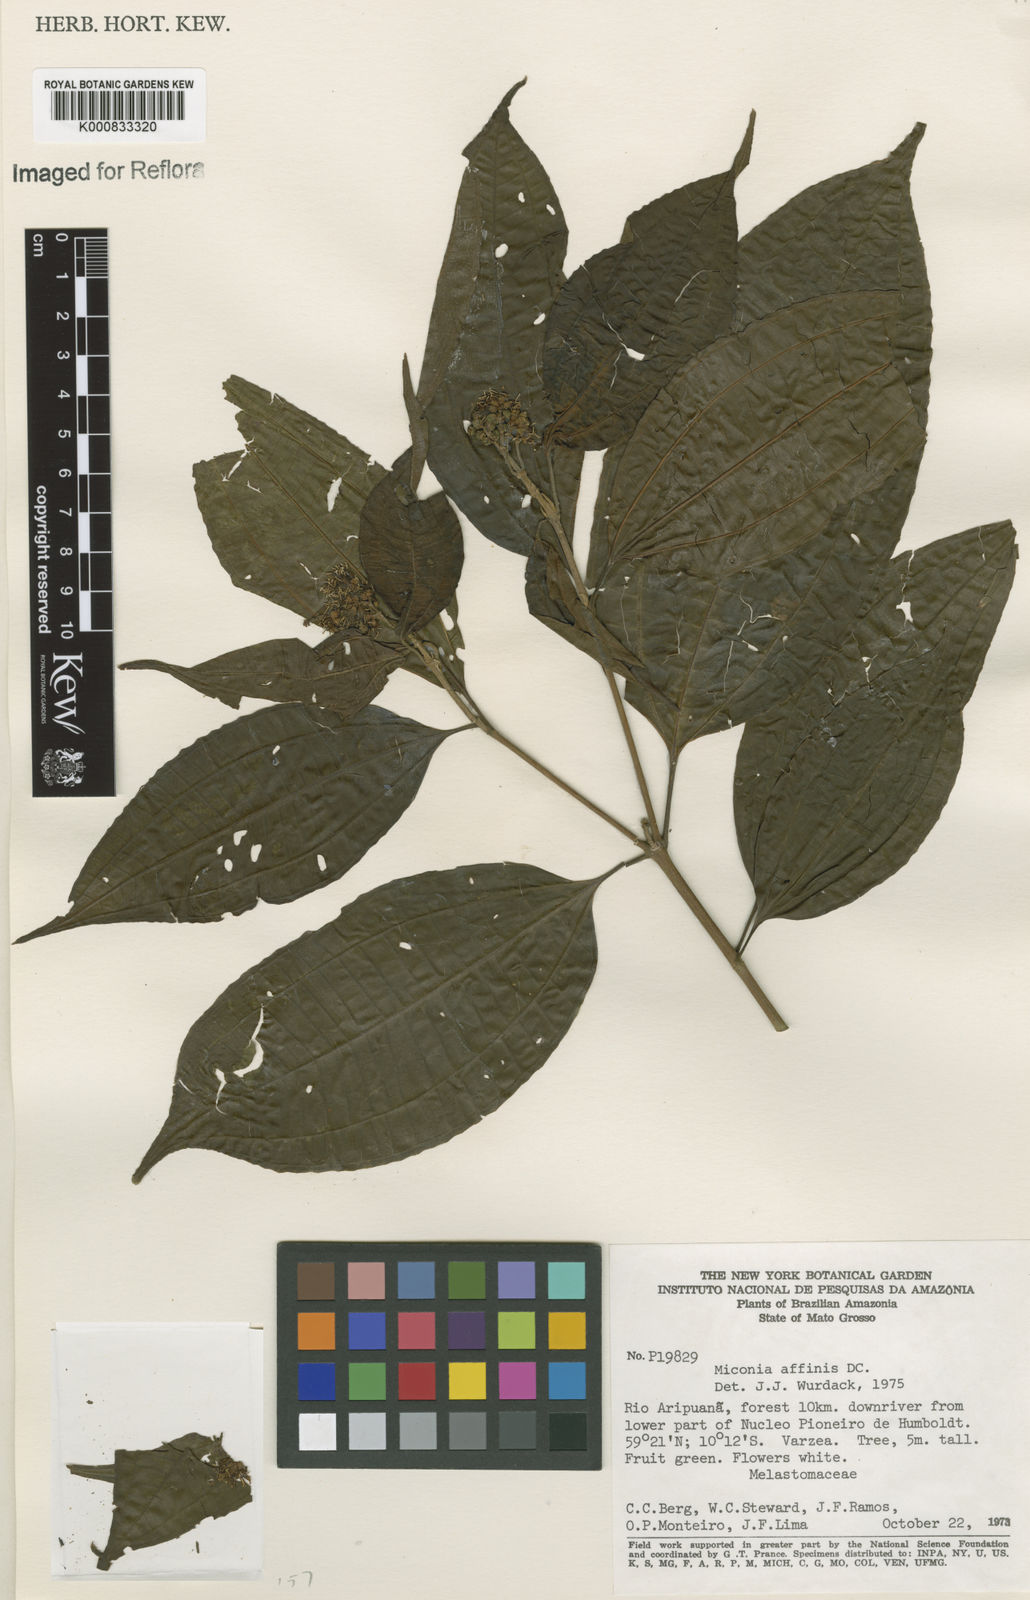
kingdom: Plantae
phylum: Tracheophyta
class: Magnoliopsida
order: Myrtales
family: Melastomataceae
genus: Miconia
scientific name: Miconia affinis
